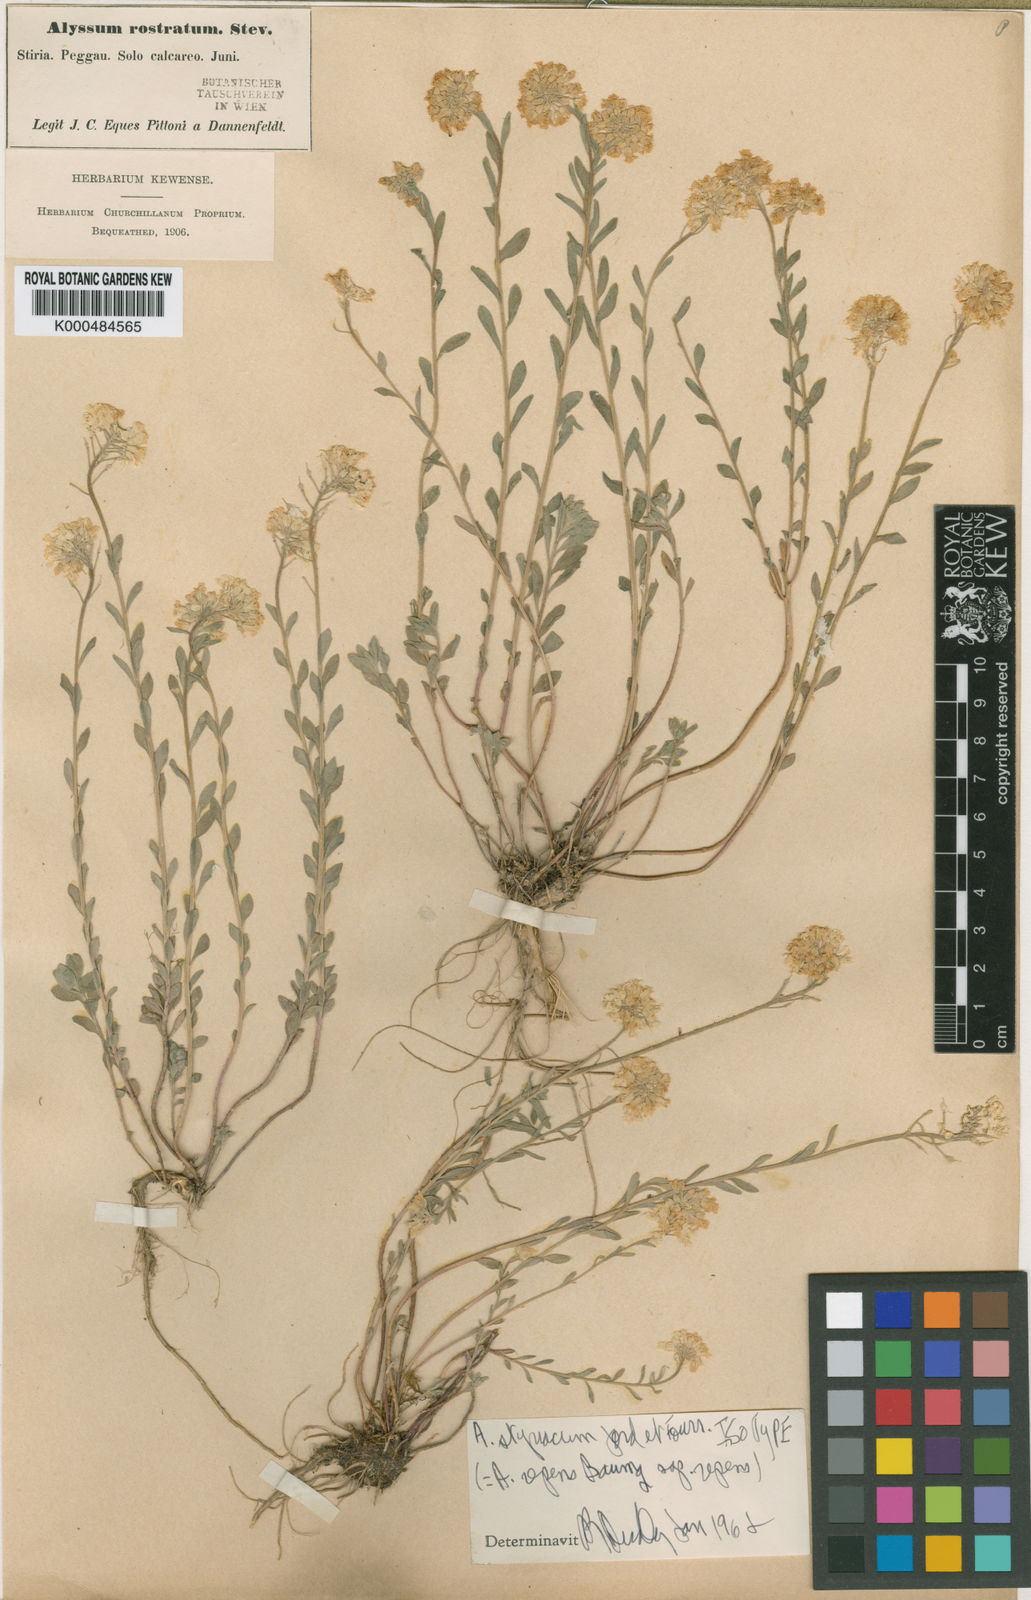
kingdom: Plantae
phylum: Tracheophyta
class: Magnoliopsida
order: Brassicales
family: Brassicaceae
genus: Alyssum
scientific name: Alyssum repens
